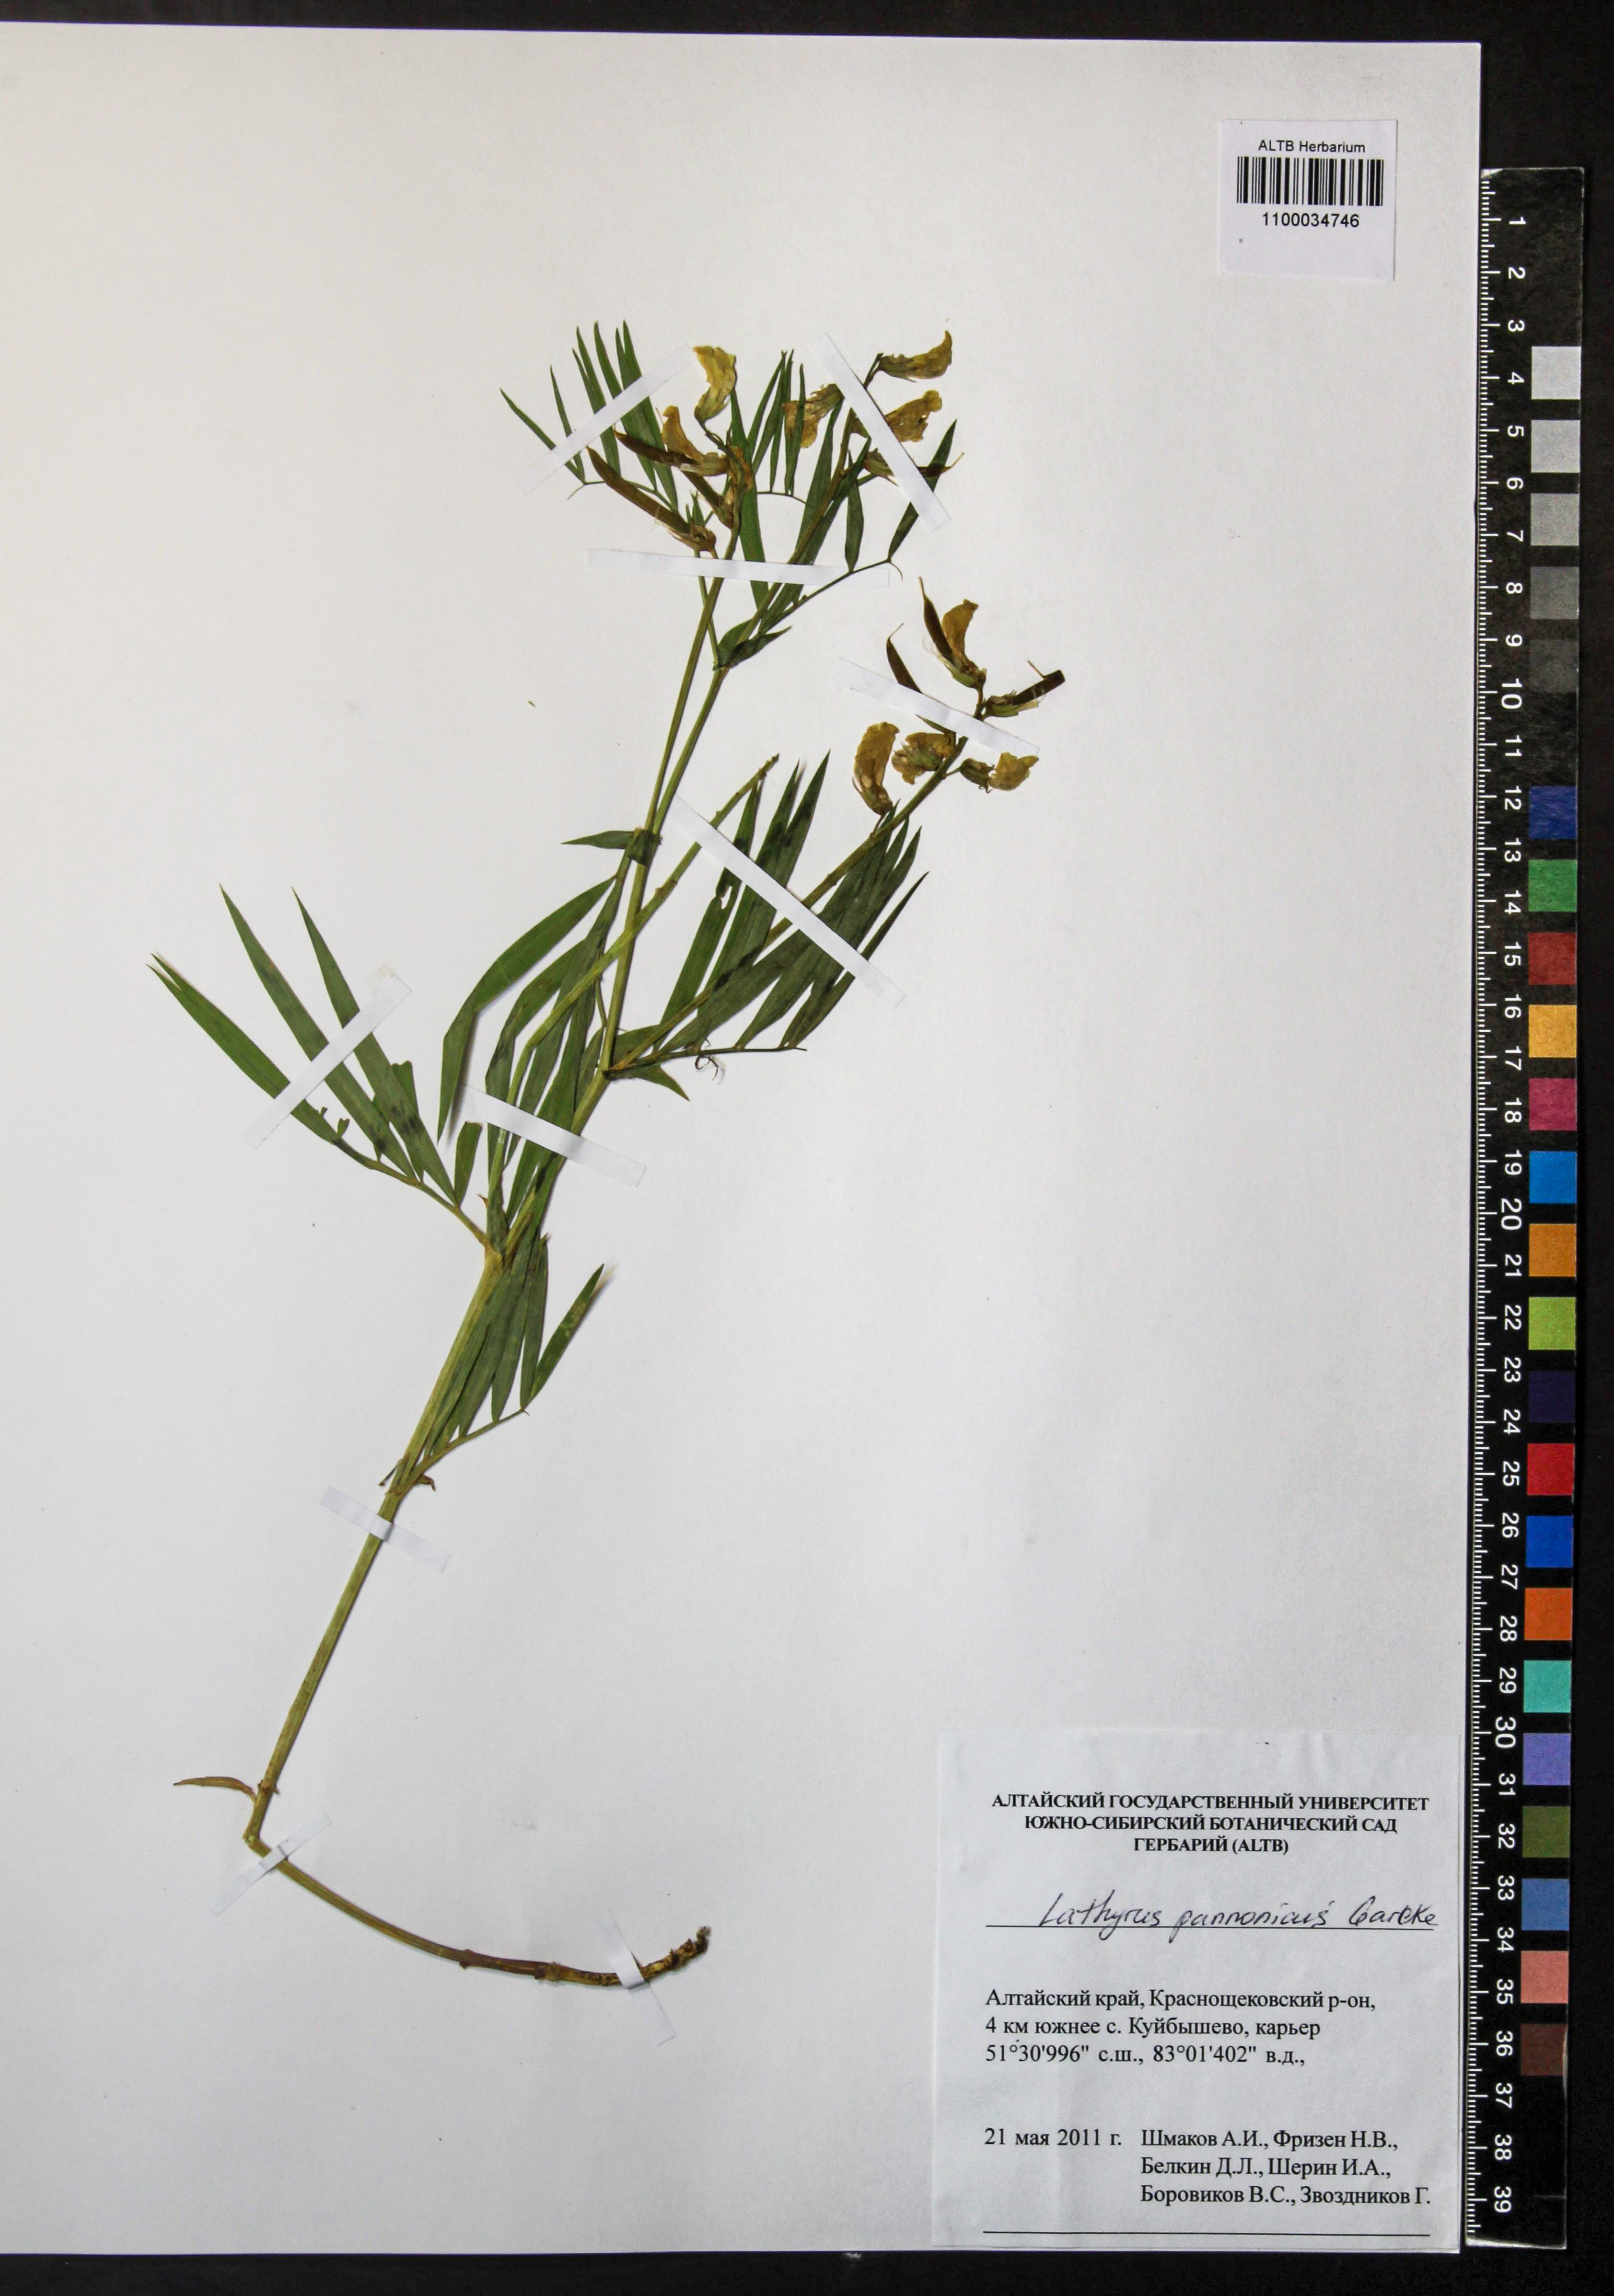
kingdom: Plantae
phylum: Tracheophyta
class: Magnoliopsida
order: Fabales
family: Fabaceae
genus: Lathyrus
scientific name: Lathyrus pannonicus
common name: Pea
